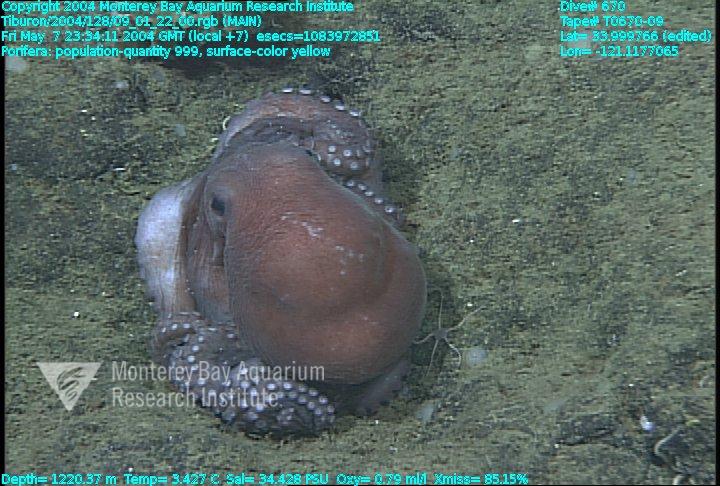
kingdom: Animalia
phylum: Porifera
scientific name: Porifera
